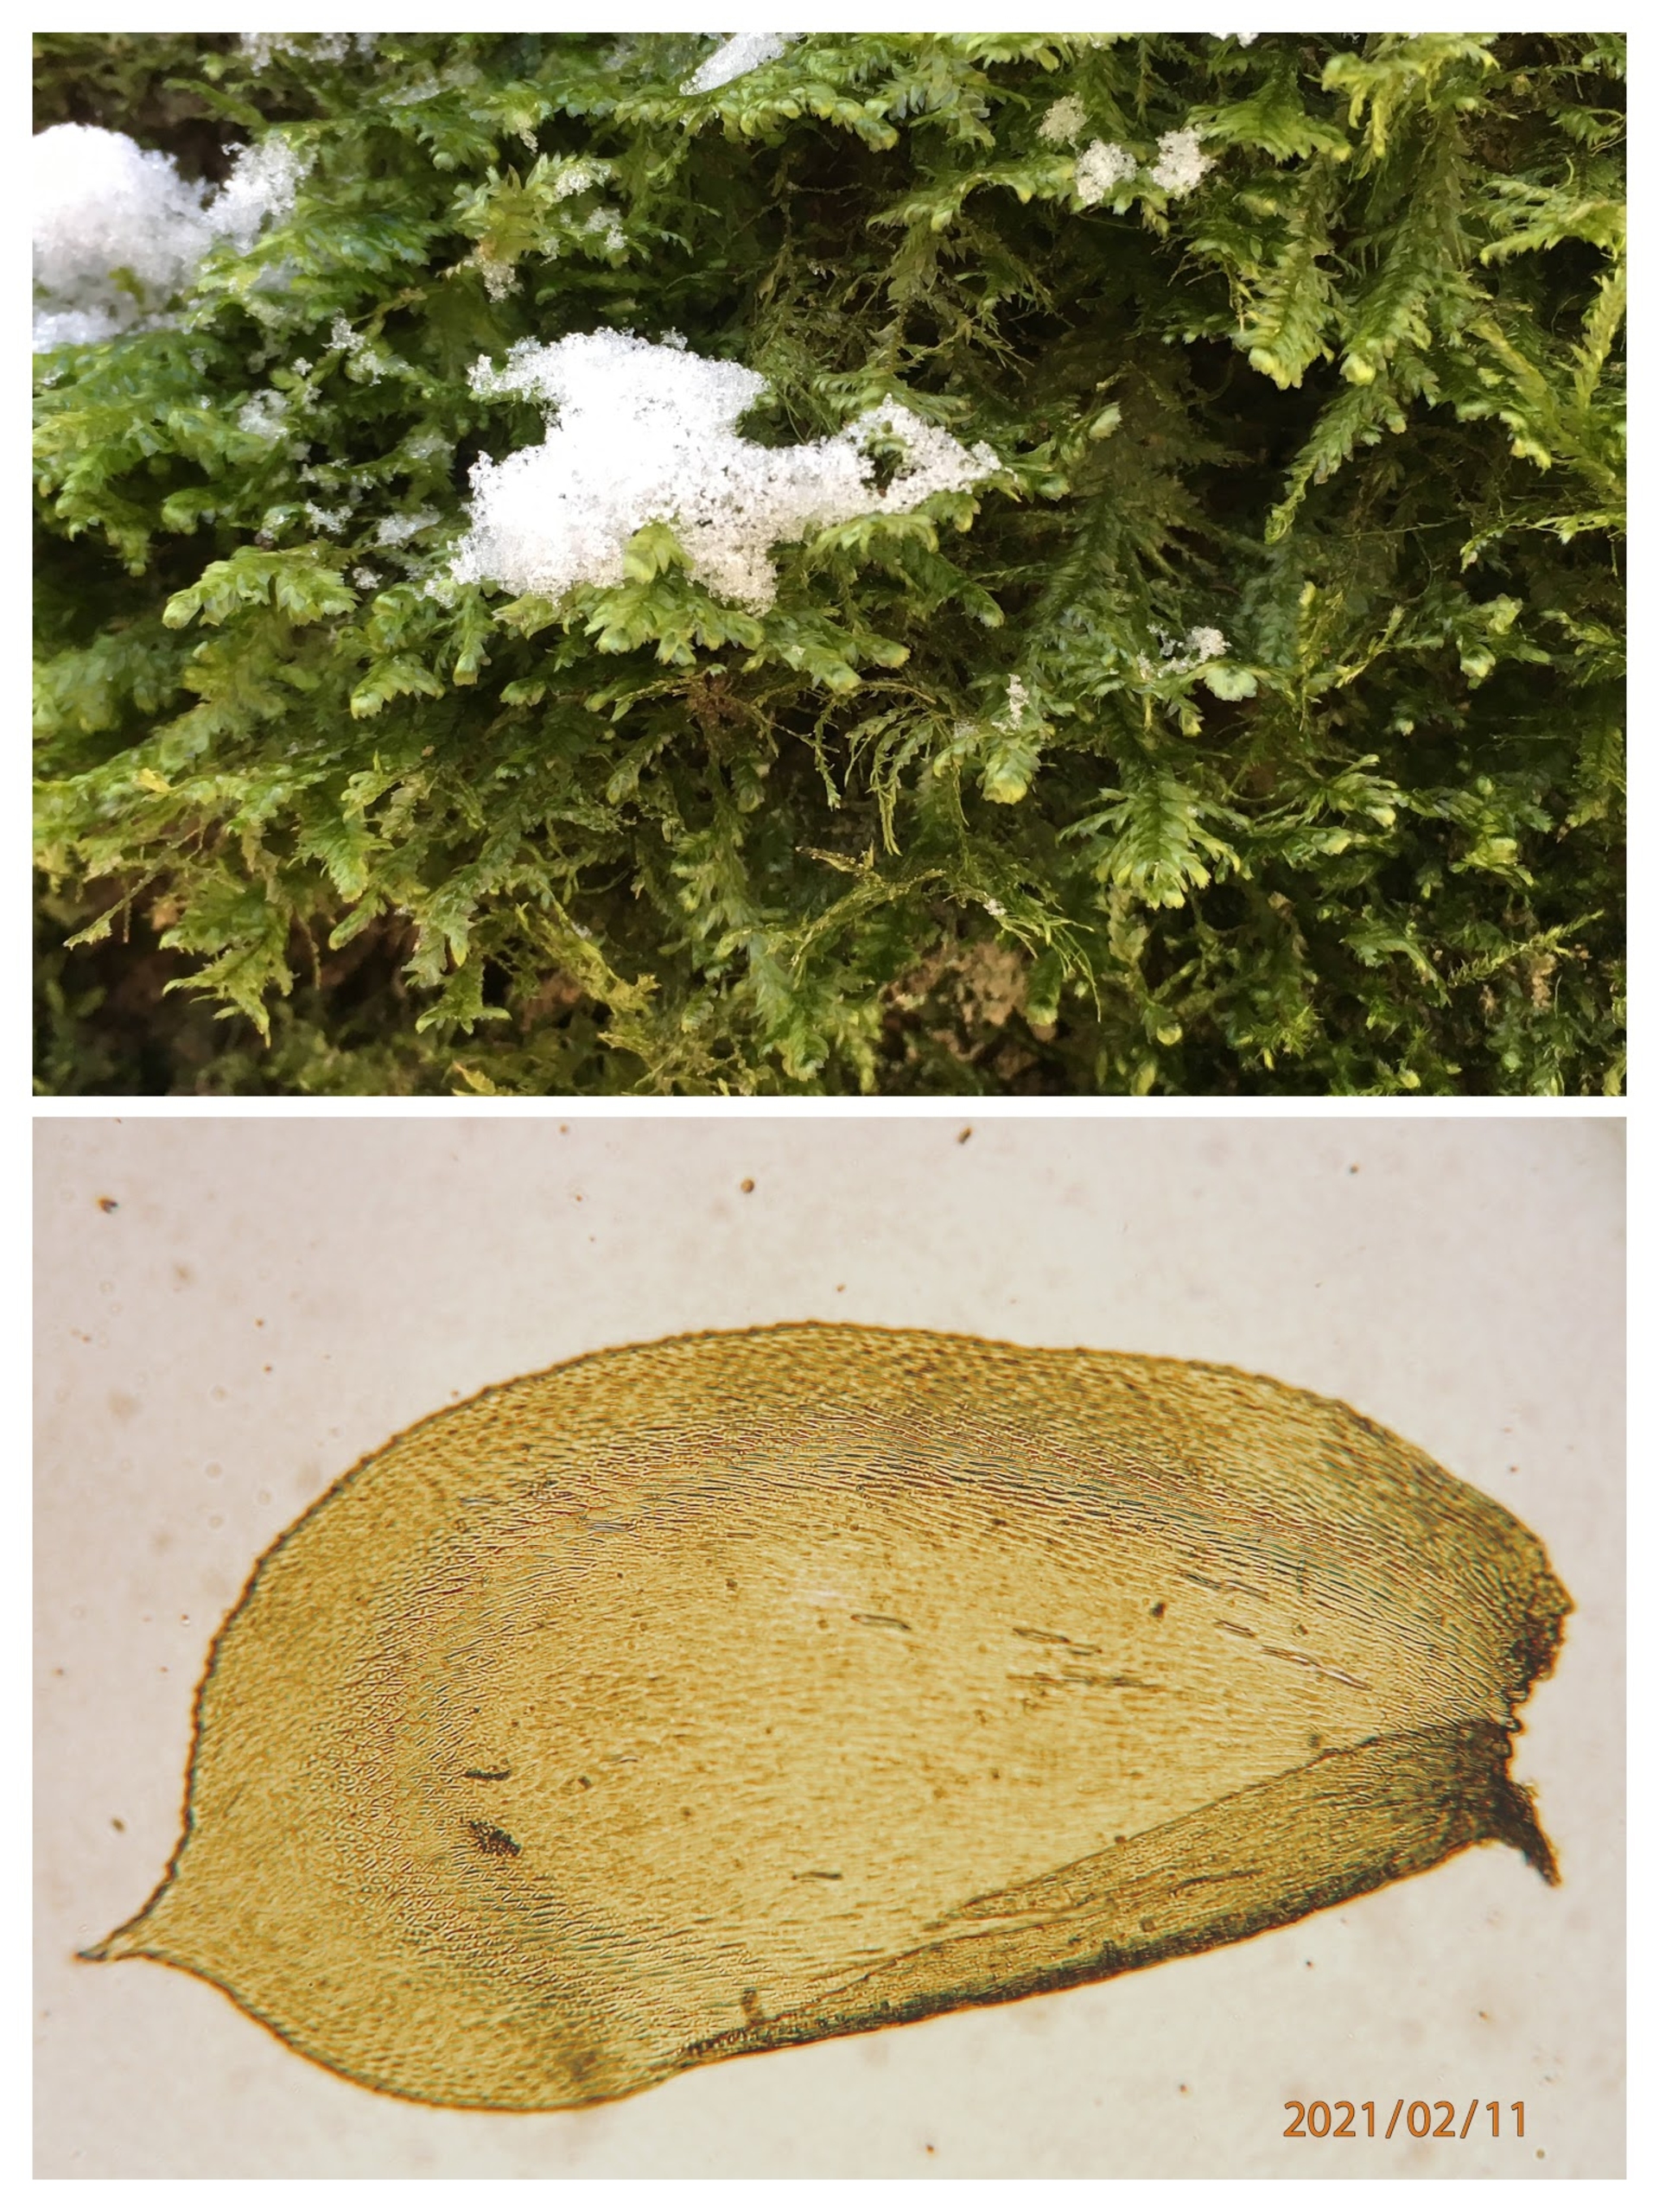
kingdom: Plantae
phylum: Bryophyta
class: Bryopsida
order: Hypnales
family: Neckeraceae
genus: Alleniella
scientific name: Alleniella complanata
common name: Almindelig fladmos
